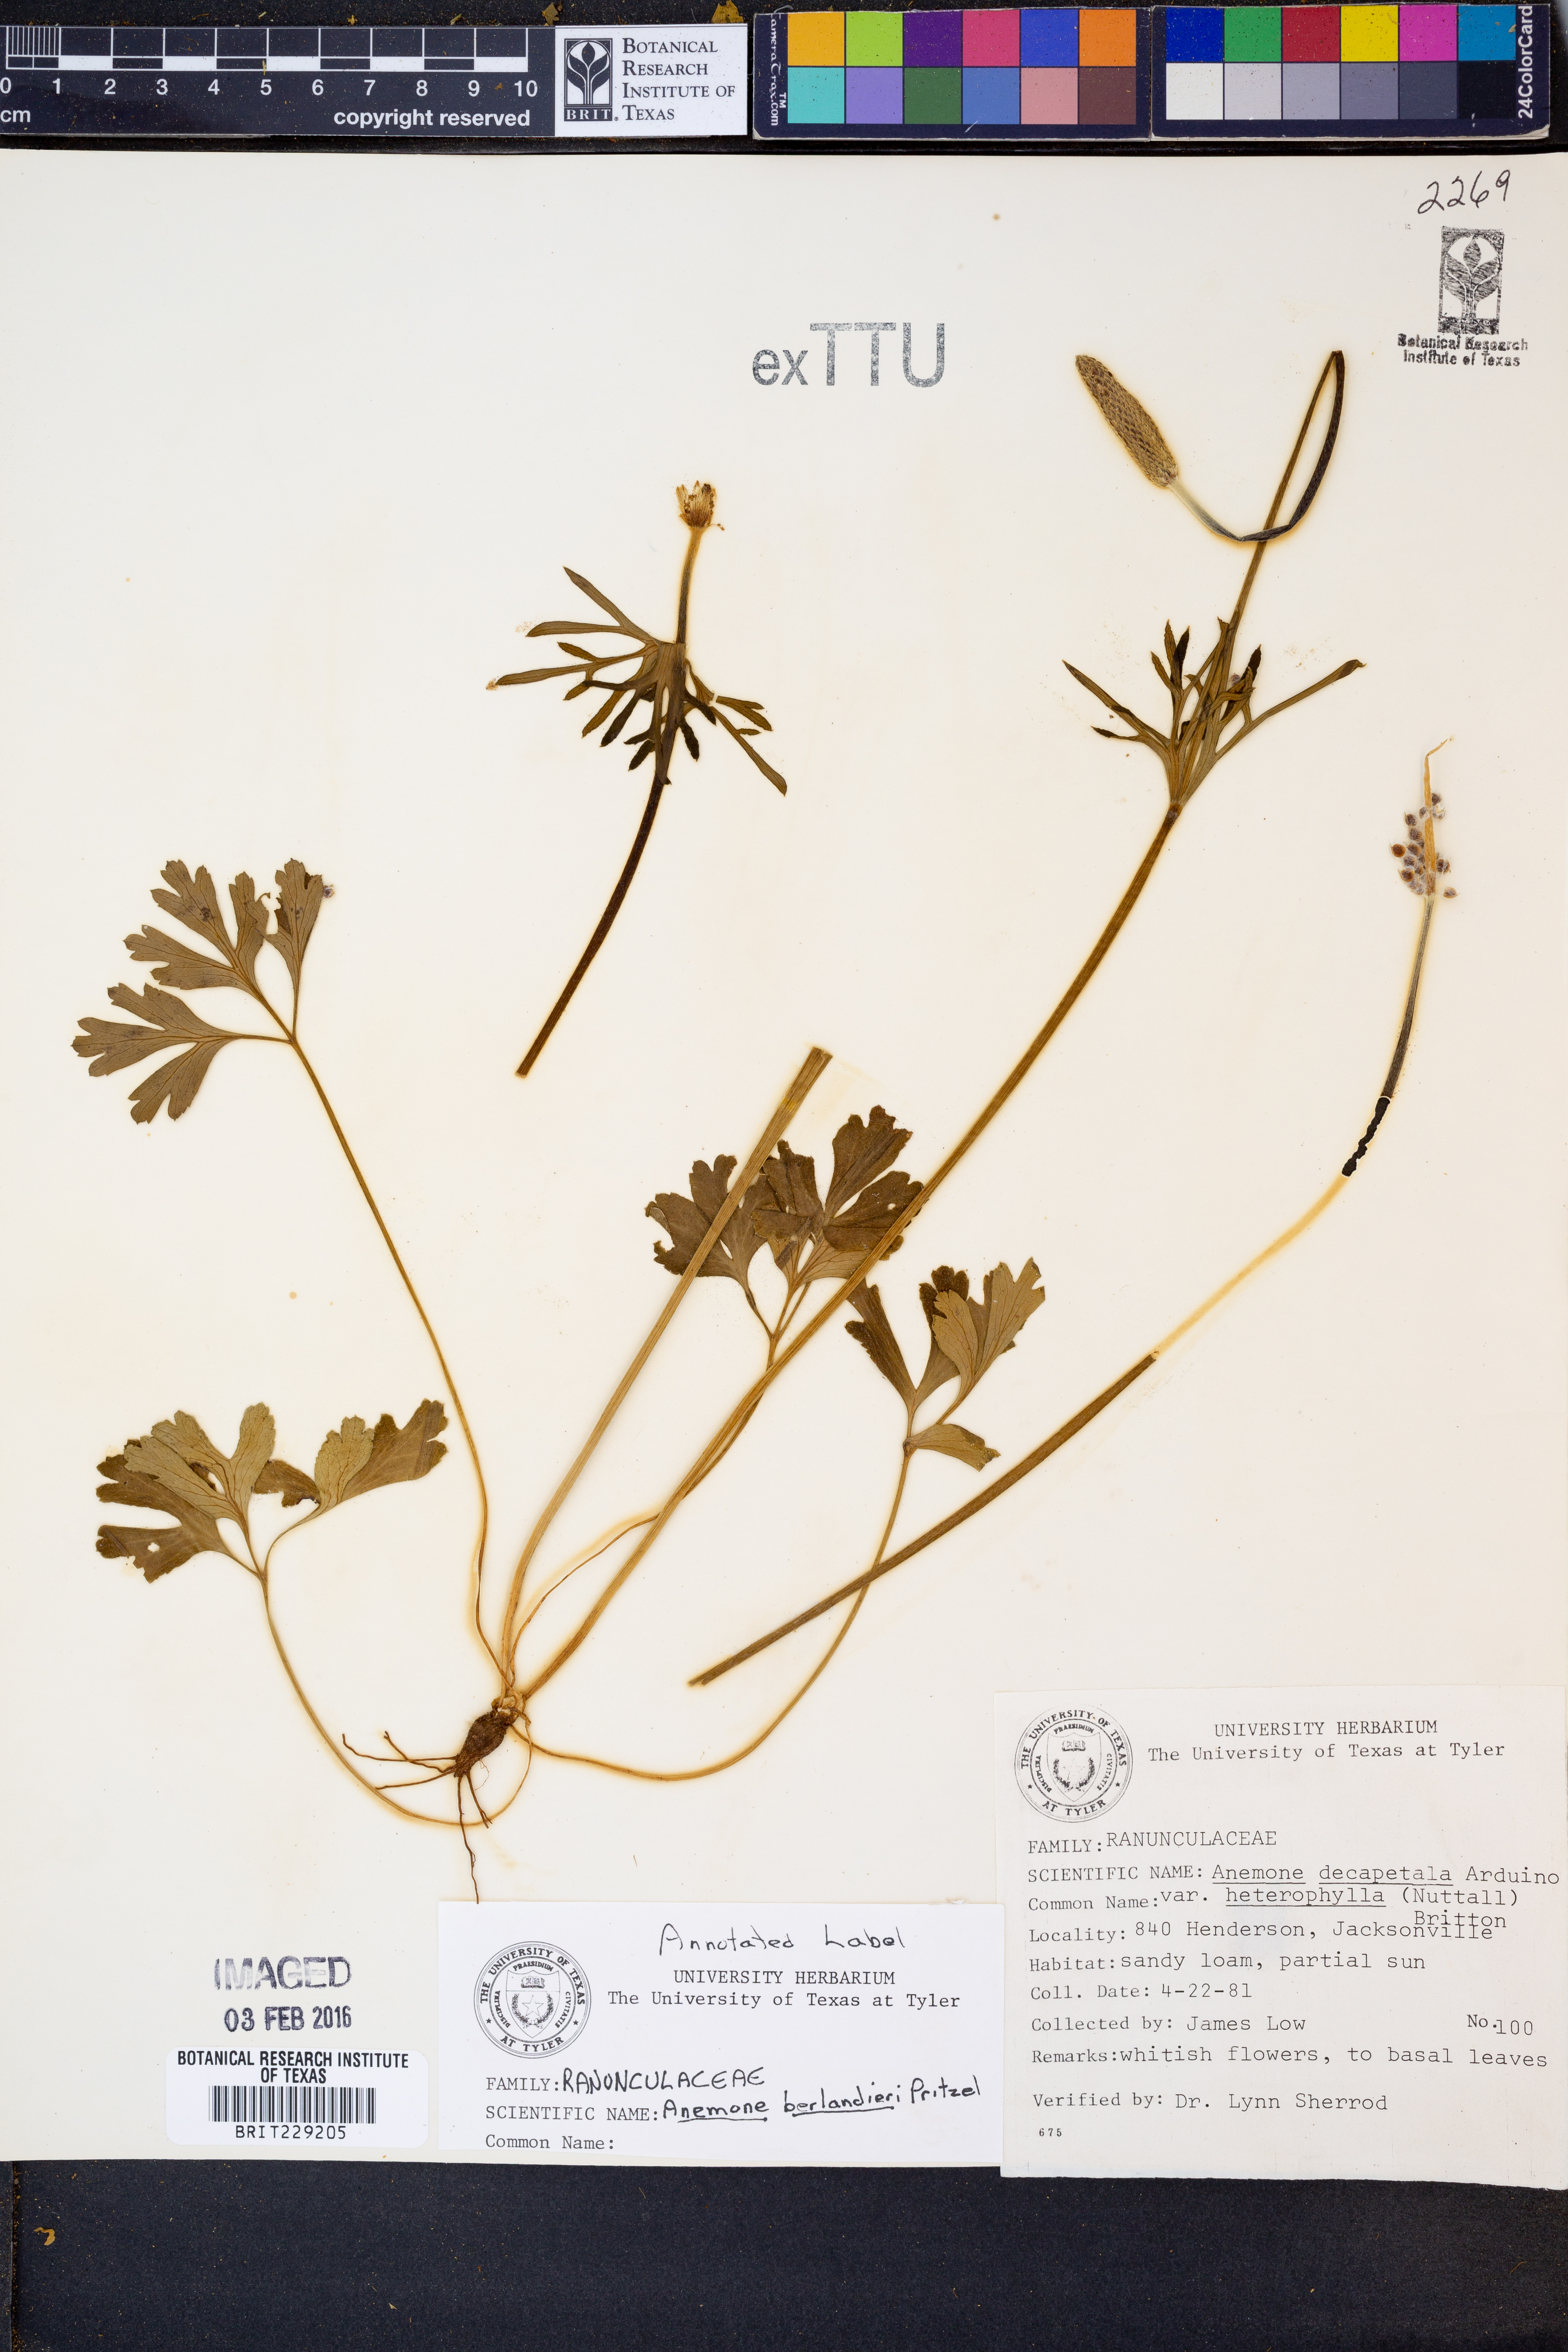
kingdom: Plantae
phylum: Tracheophyta
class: Magnoliopsida
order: Ranunculales
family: Ranunculaceae
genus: Anemone
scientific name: Anemone berlandieri
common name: Ten-petal anemone
